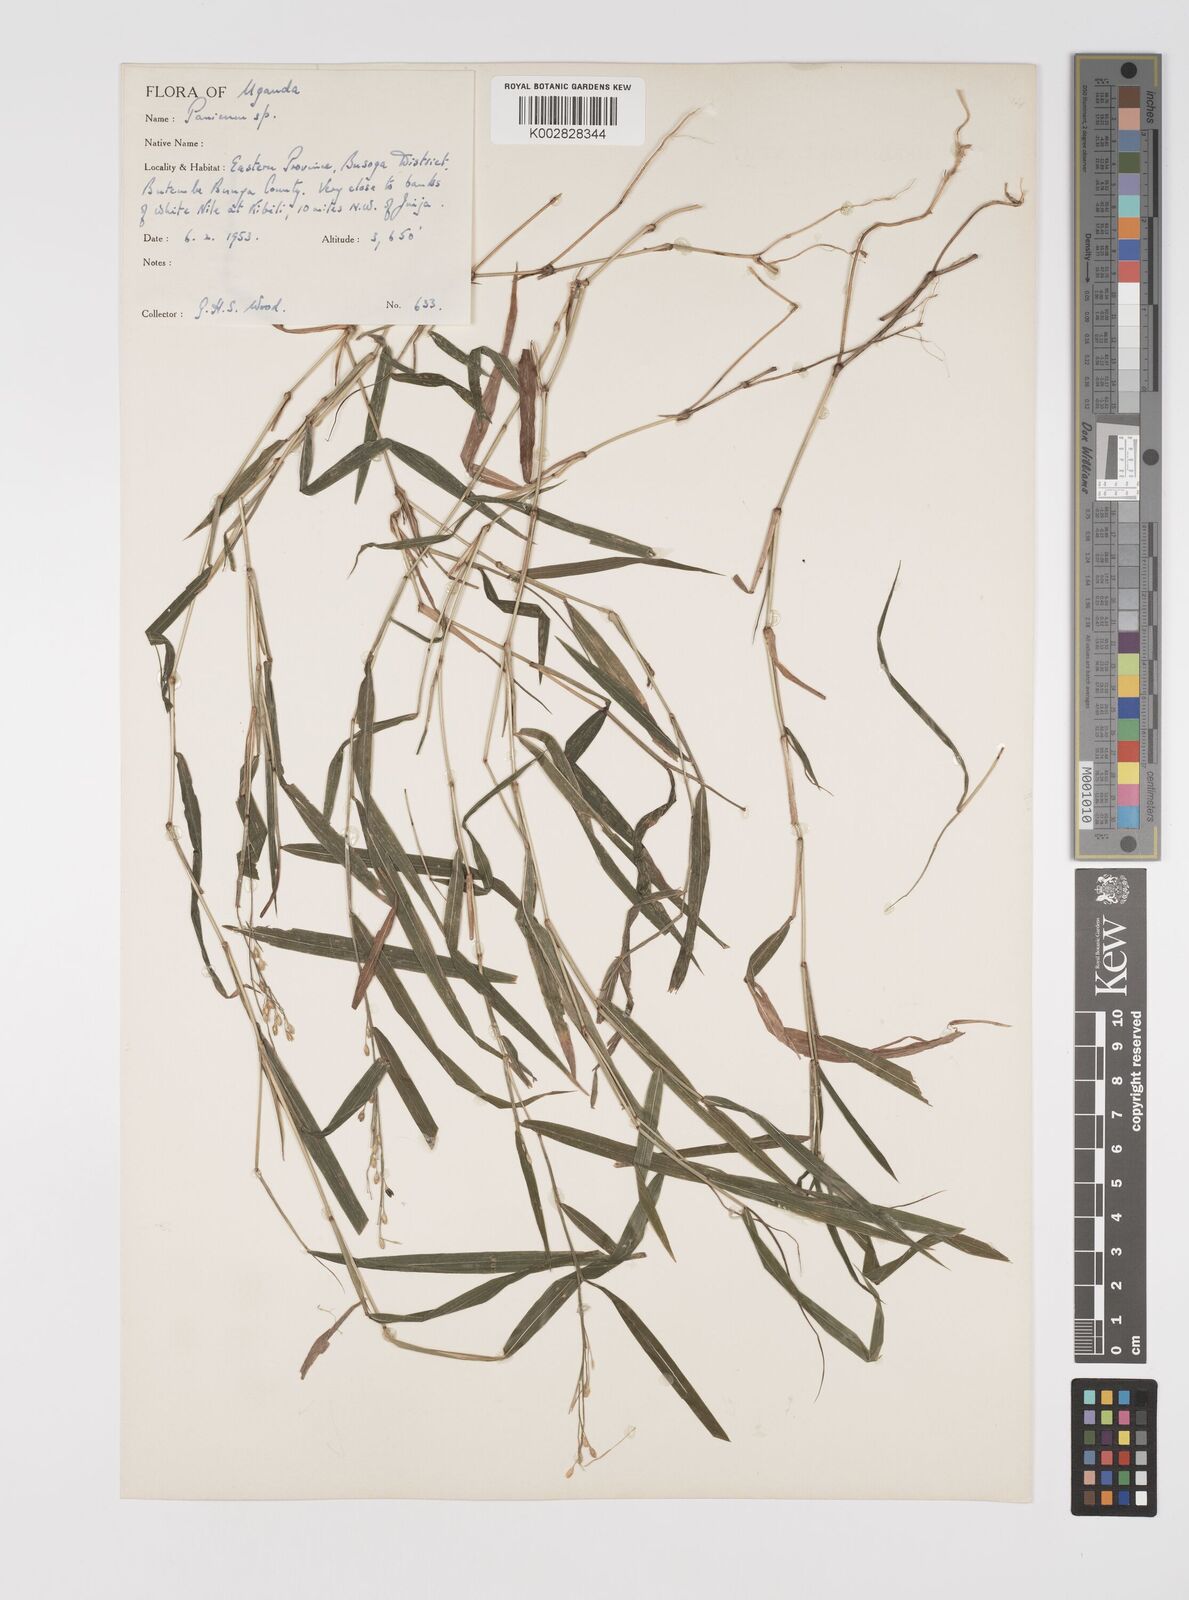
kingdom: Plantae
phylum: Tracheophyta
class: Liliopsida
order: Poales
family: Poaceae
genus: Acroceras
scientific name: Acroceras attenuatum
